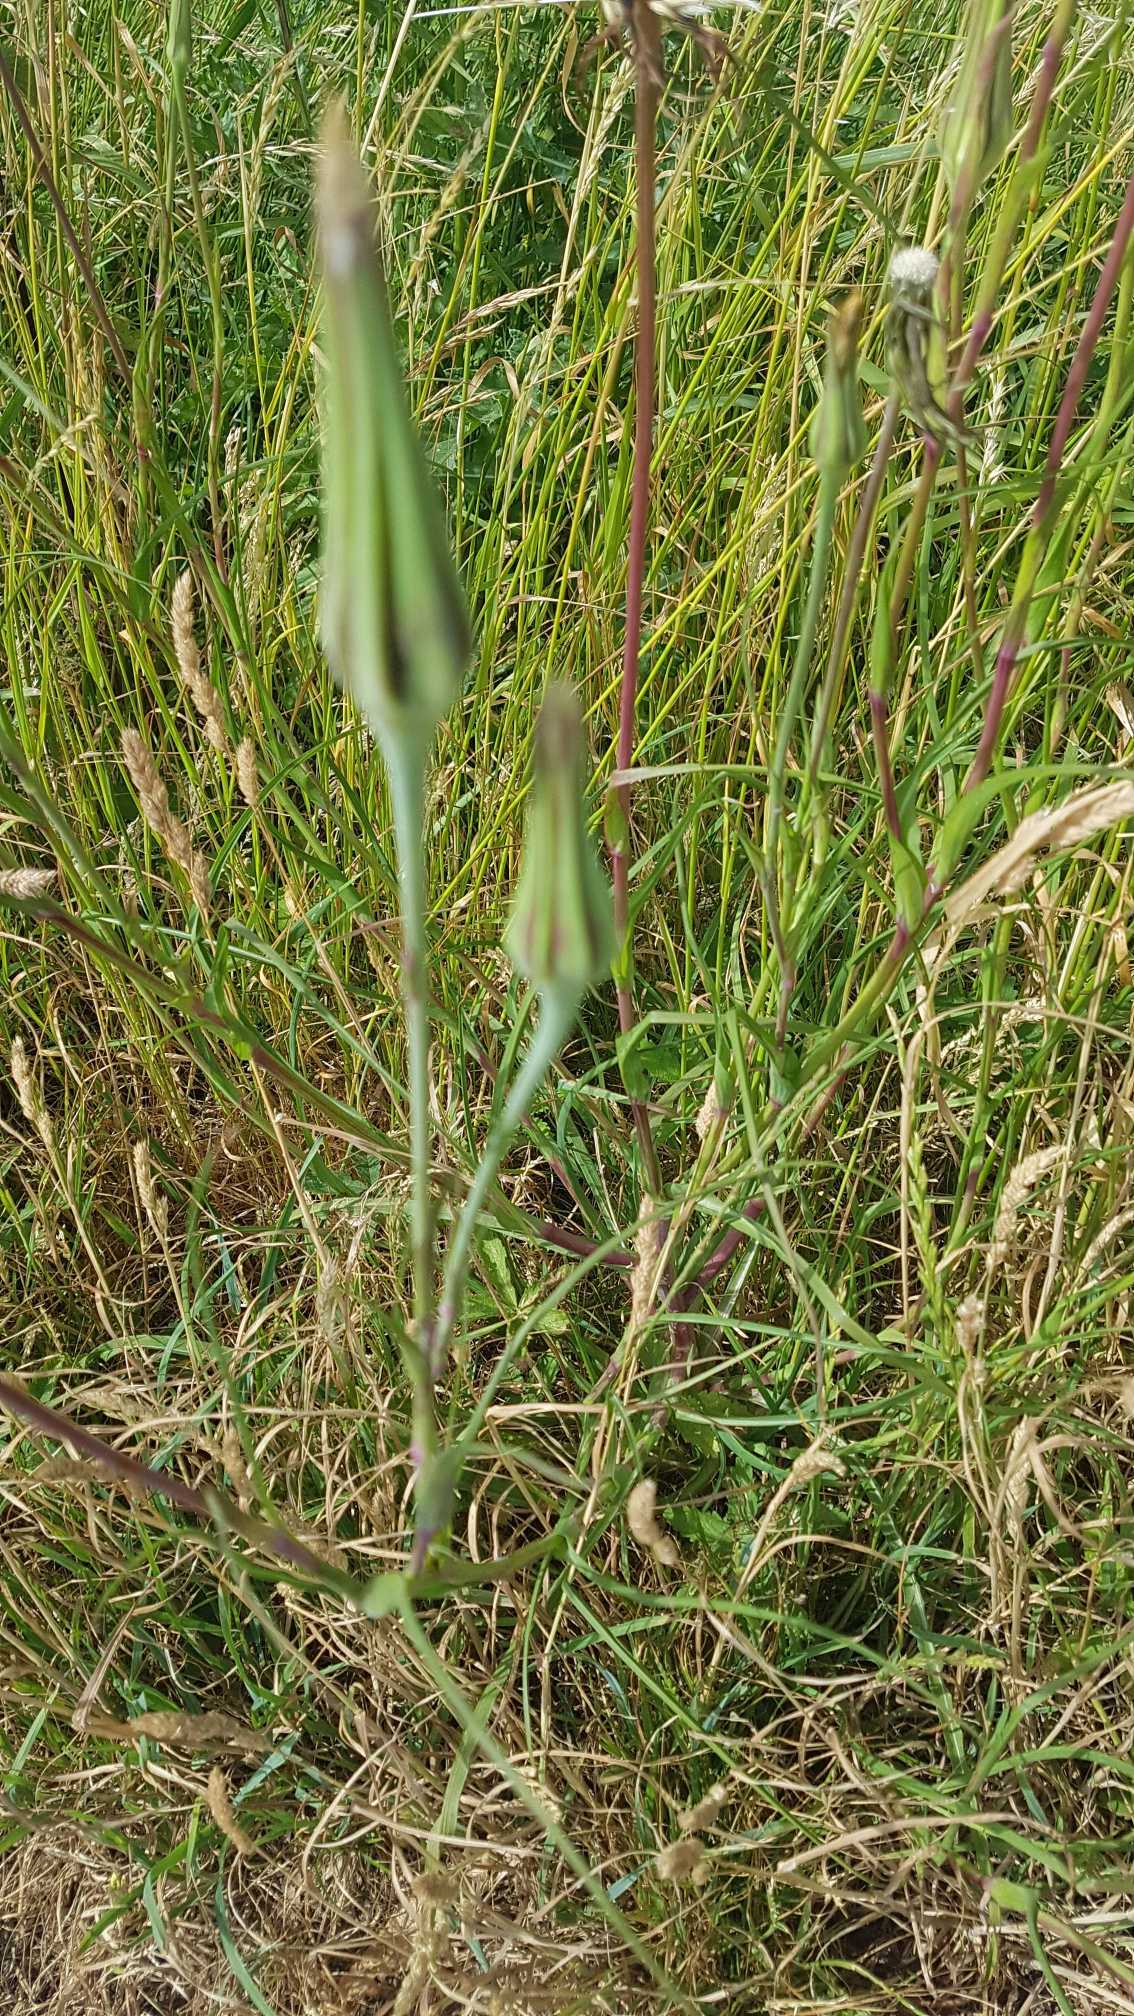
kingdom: Plantae
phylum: Tracheophyta
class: Magnoliopsida
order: Asterales
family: Asteraceae
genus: Tragopogon
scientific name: Tragopogon pratensis
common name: Gedeskæg
